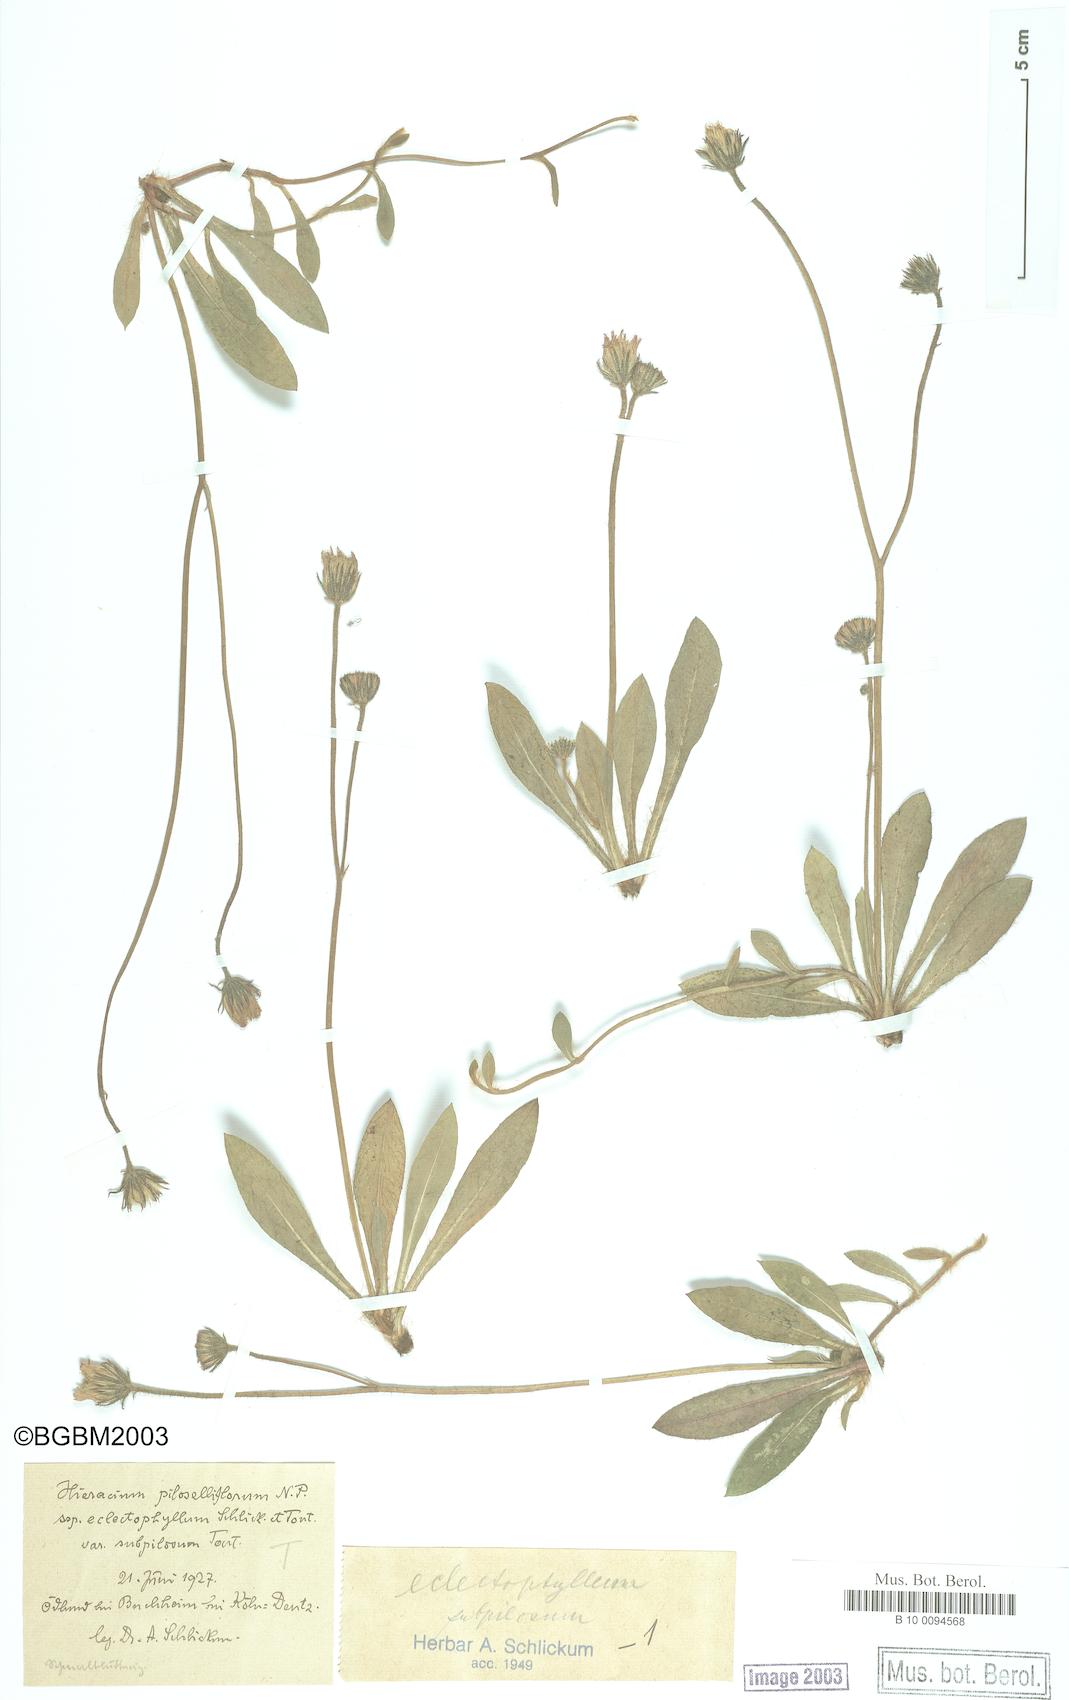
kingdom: Plantae
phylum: Tracheophyta
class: Magnoliopsida
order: Asterales
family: Asteraceae
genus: Pilosella
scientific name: Pilosella piloselliflora
